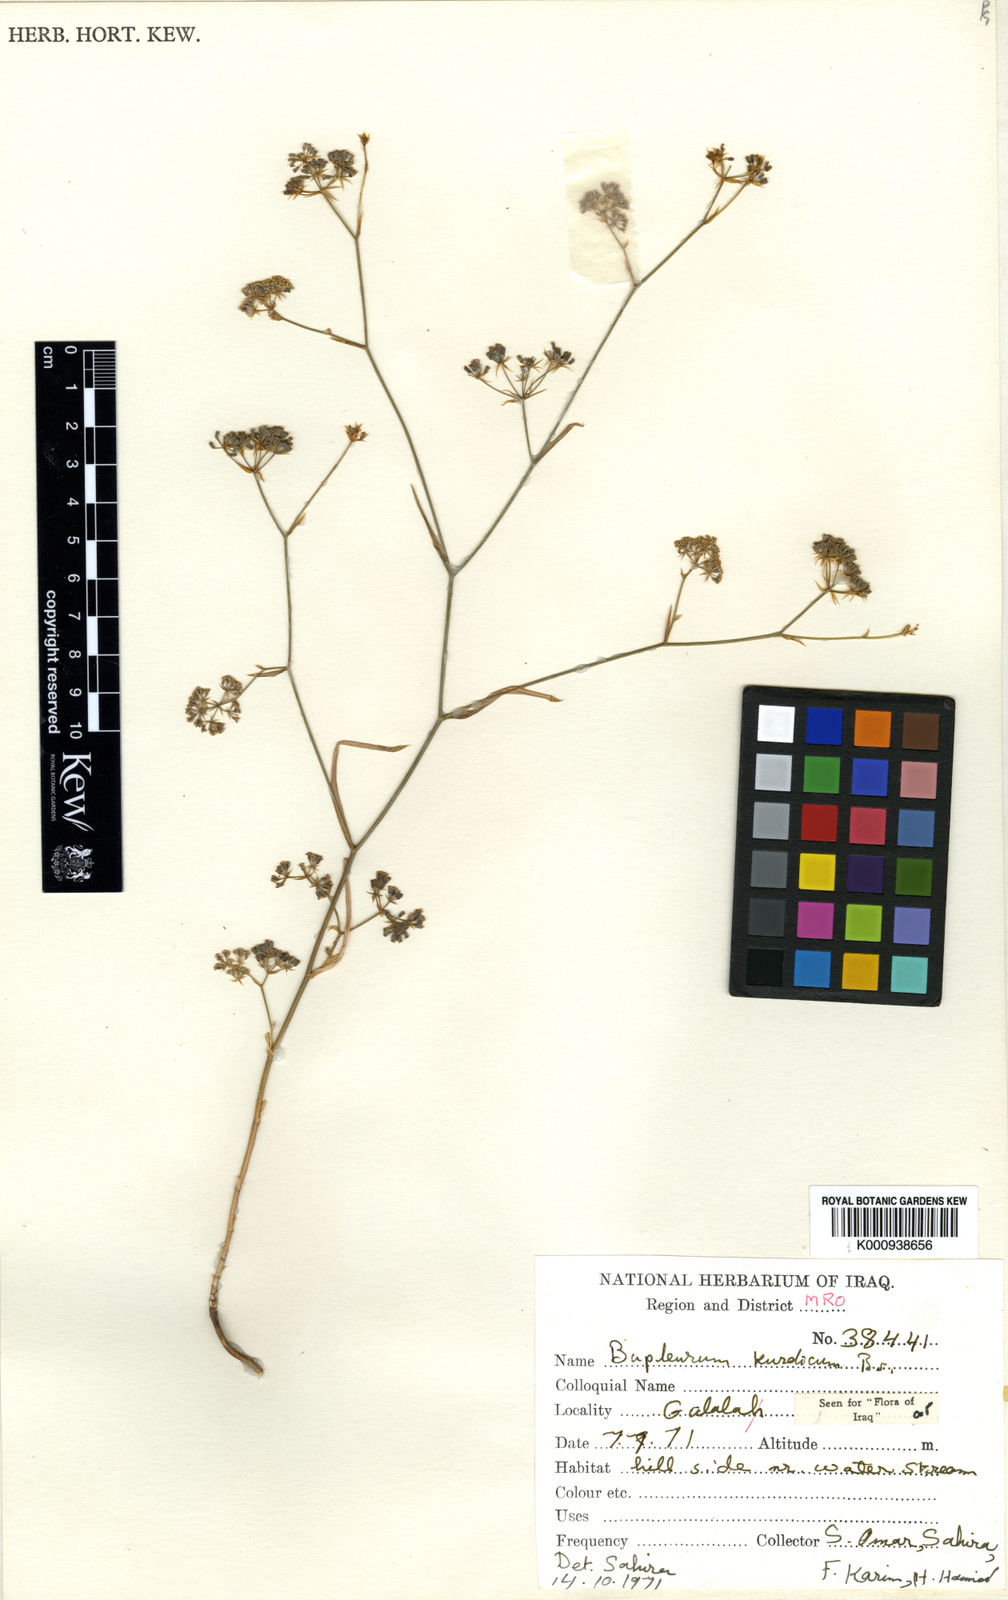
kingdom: Plantae
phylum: Tracheophyta
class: Magnoliopsida
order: Apiales
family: Apiaceae
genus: Bupleurum
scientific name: Bupleurum kurdicum
